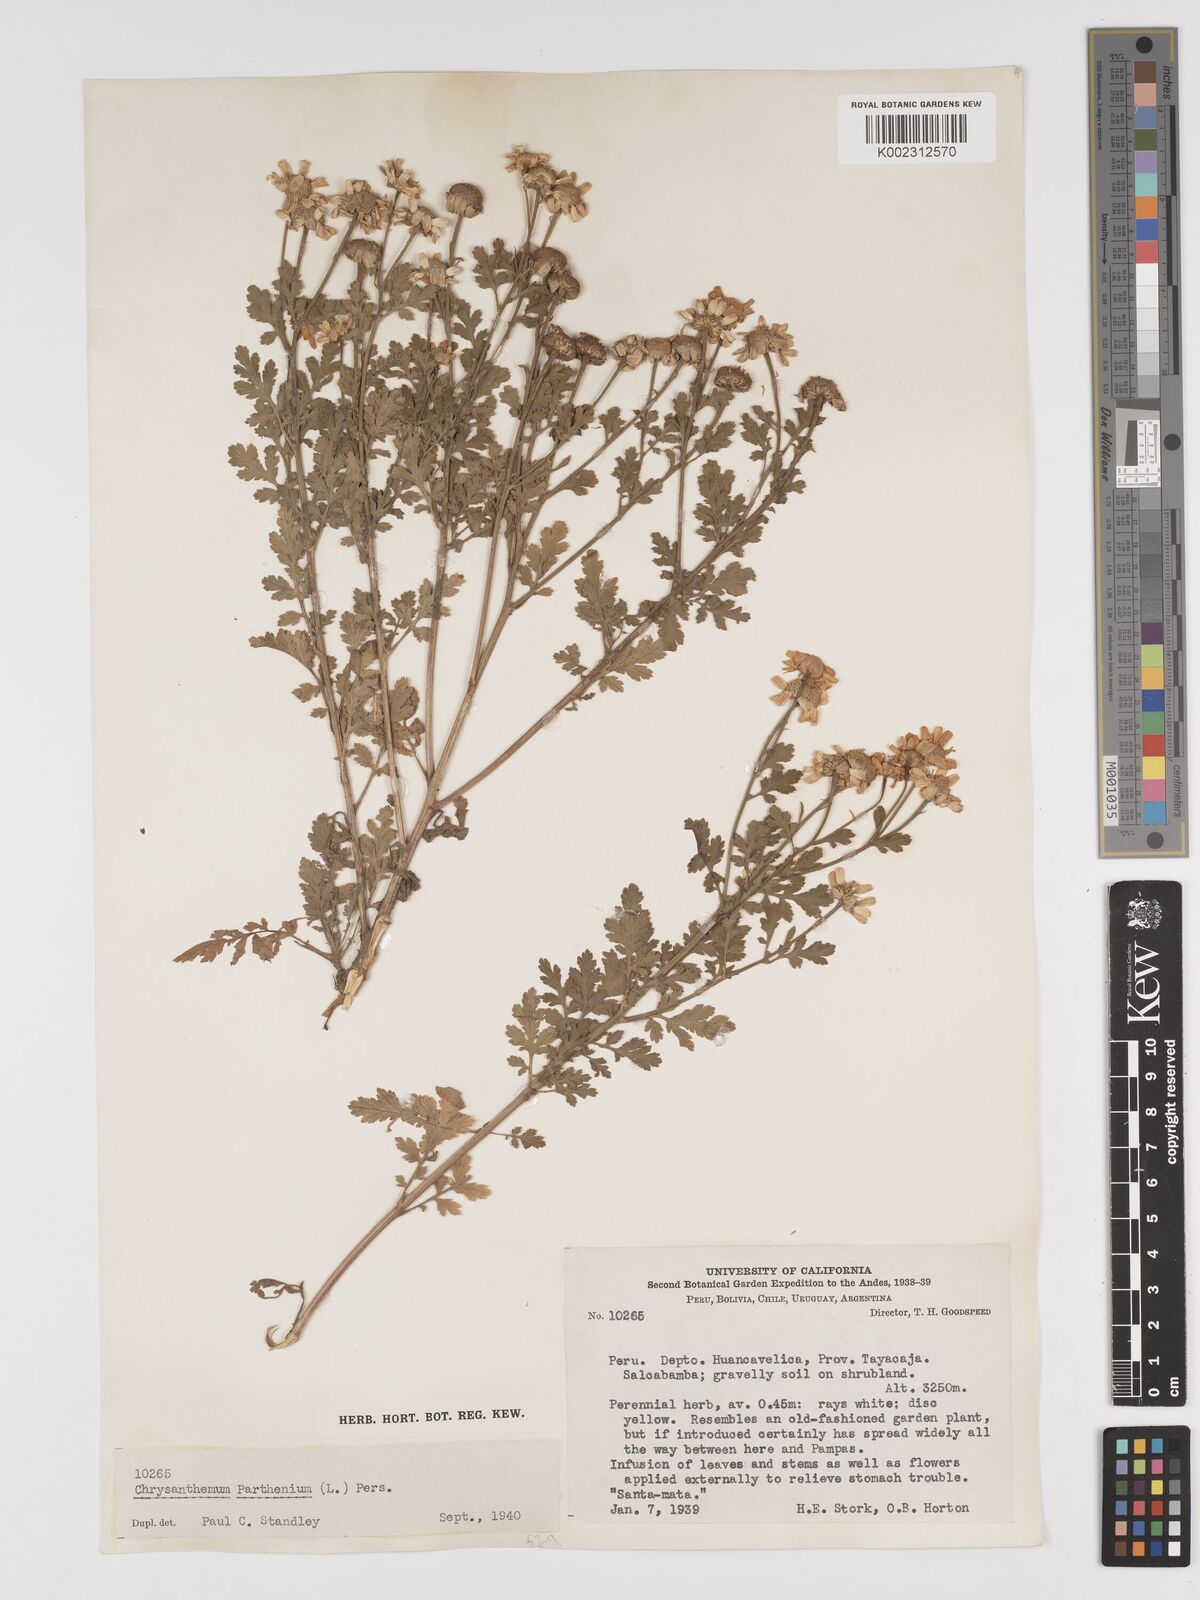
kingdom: Plantae
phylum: Tracheophyta
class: Magnoliopsida
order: Asterales
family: Asteraceae
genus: Tanacetum
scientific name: Tanacetum parthenium
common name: Feverfew
